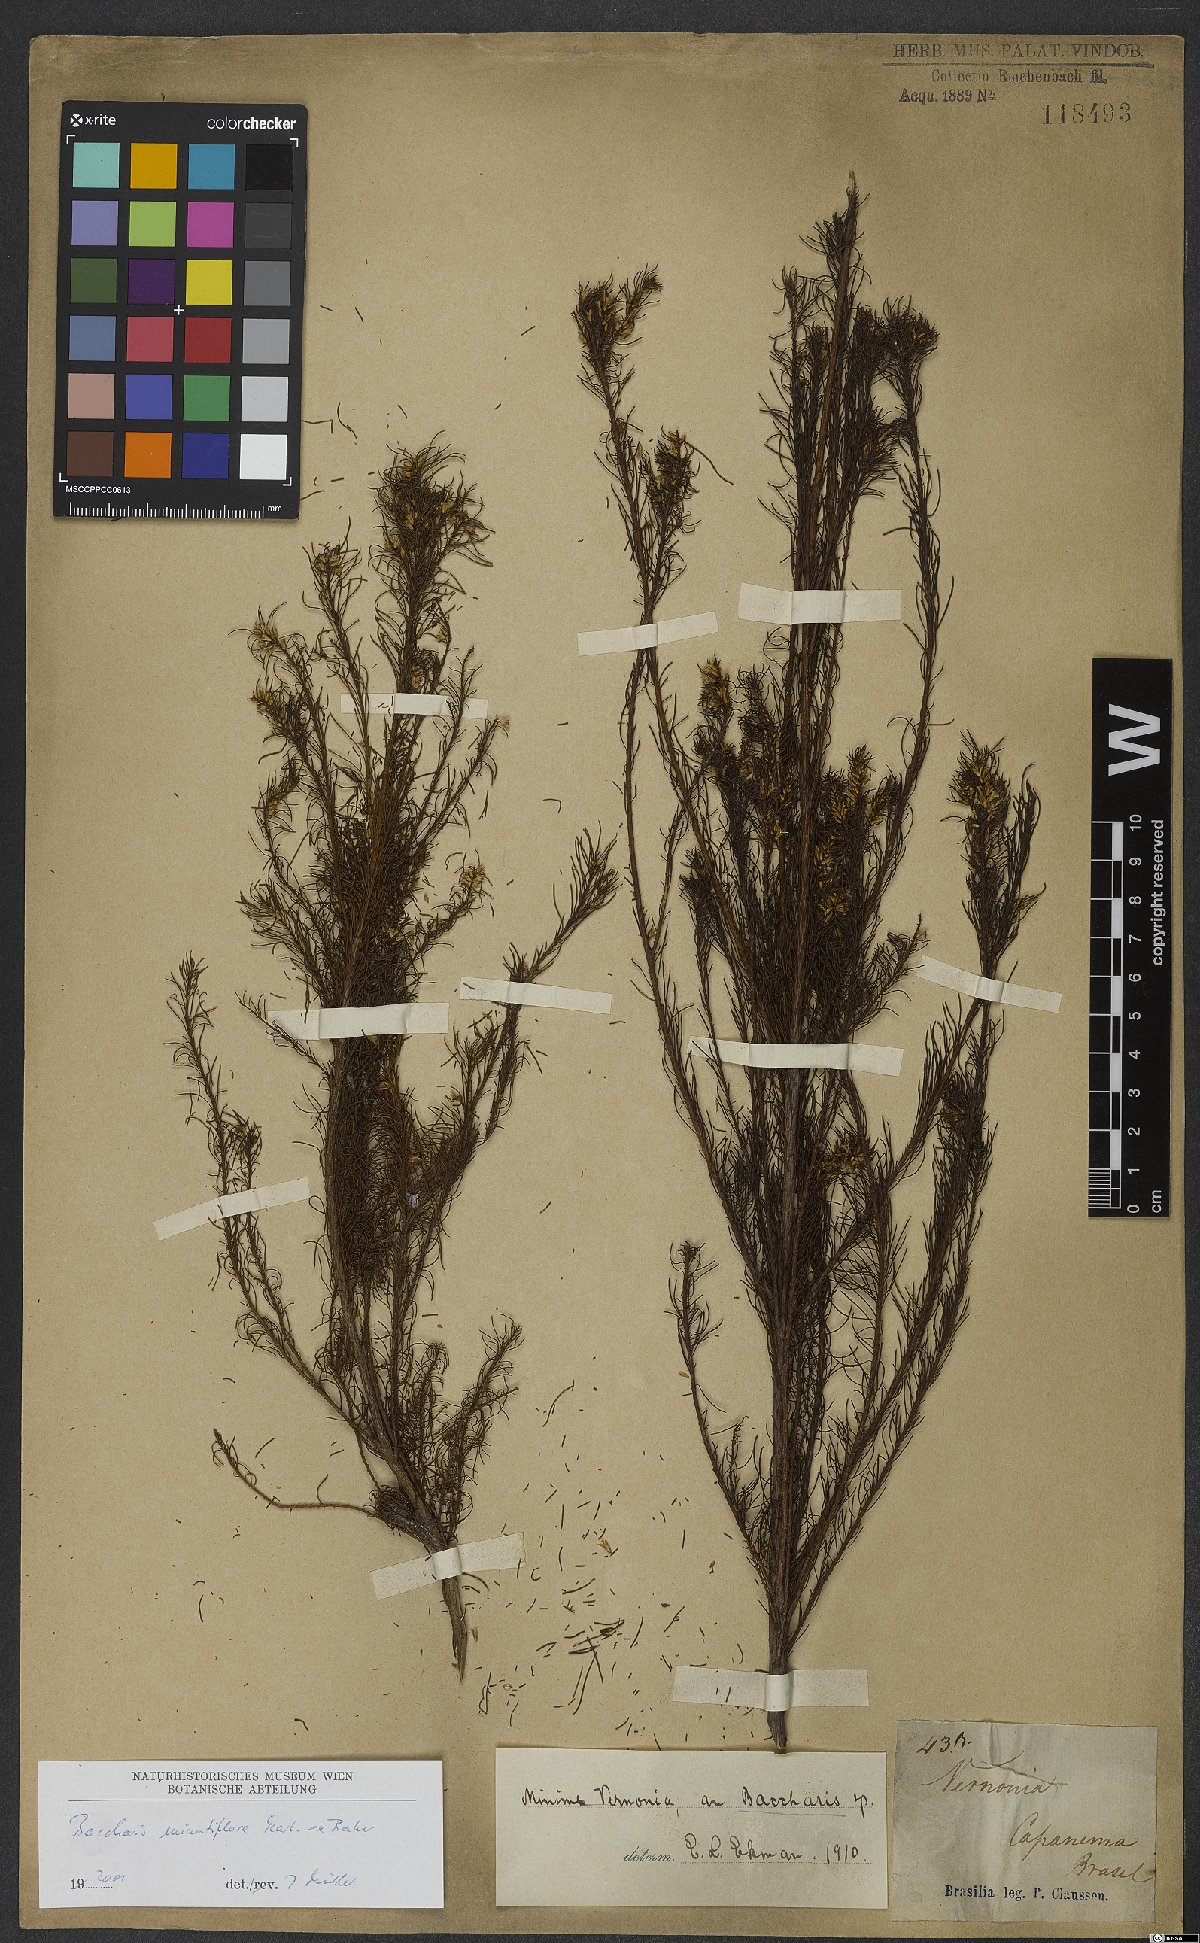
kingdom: Plantae
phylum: Tracheophyta
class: Magnoliopsida
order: Asterales
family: Asteraceae
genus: Baccharis
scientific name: Baccharis minutiflora
